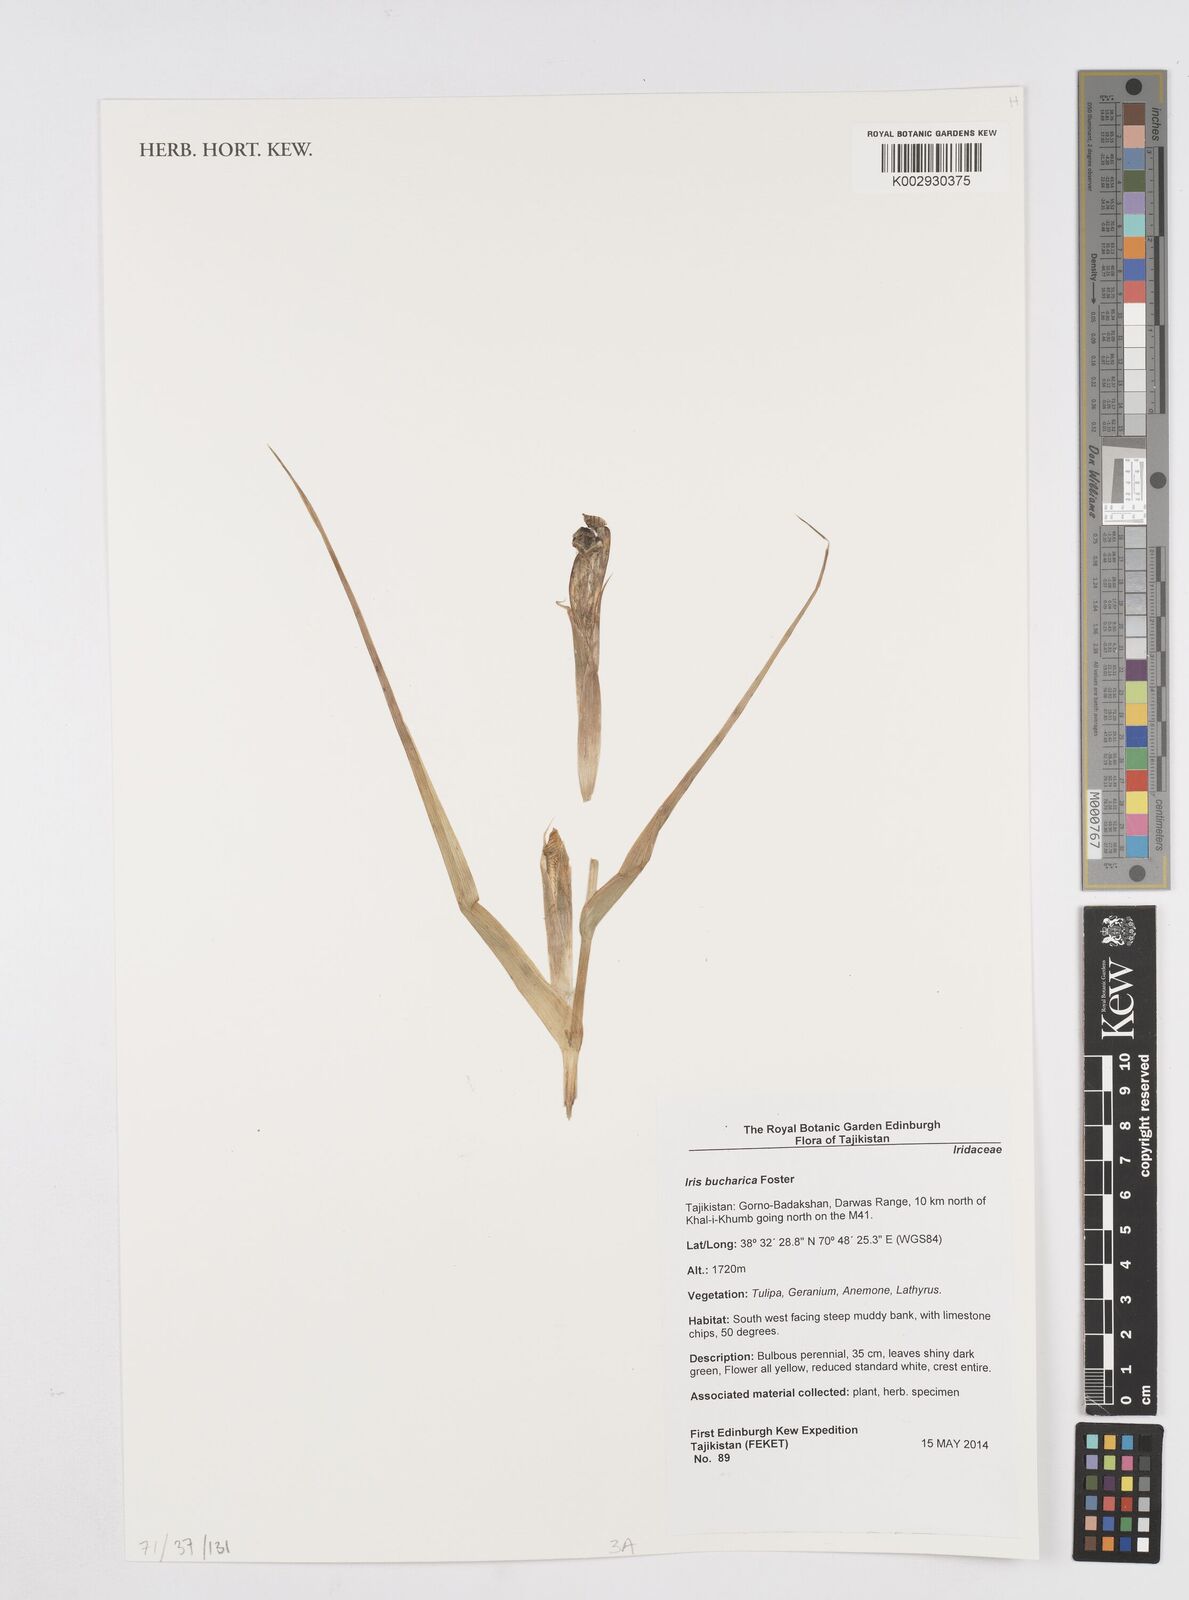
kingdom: Plantae
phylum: Tracheophyta
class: Liliopsida
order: Asparagales
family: Iridaceae
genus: Iris
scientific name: Iris bucharica
